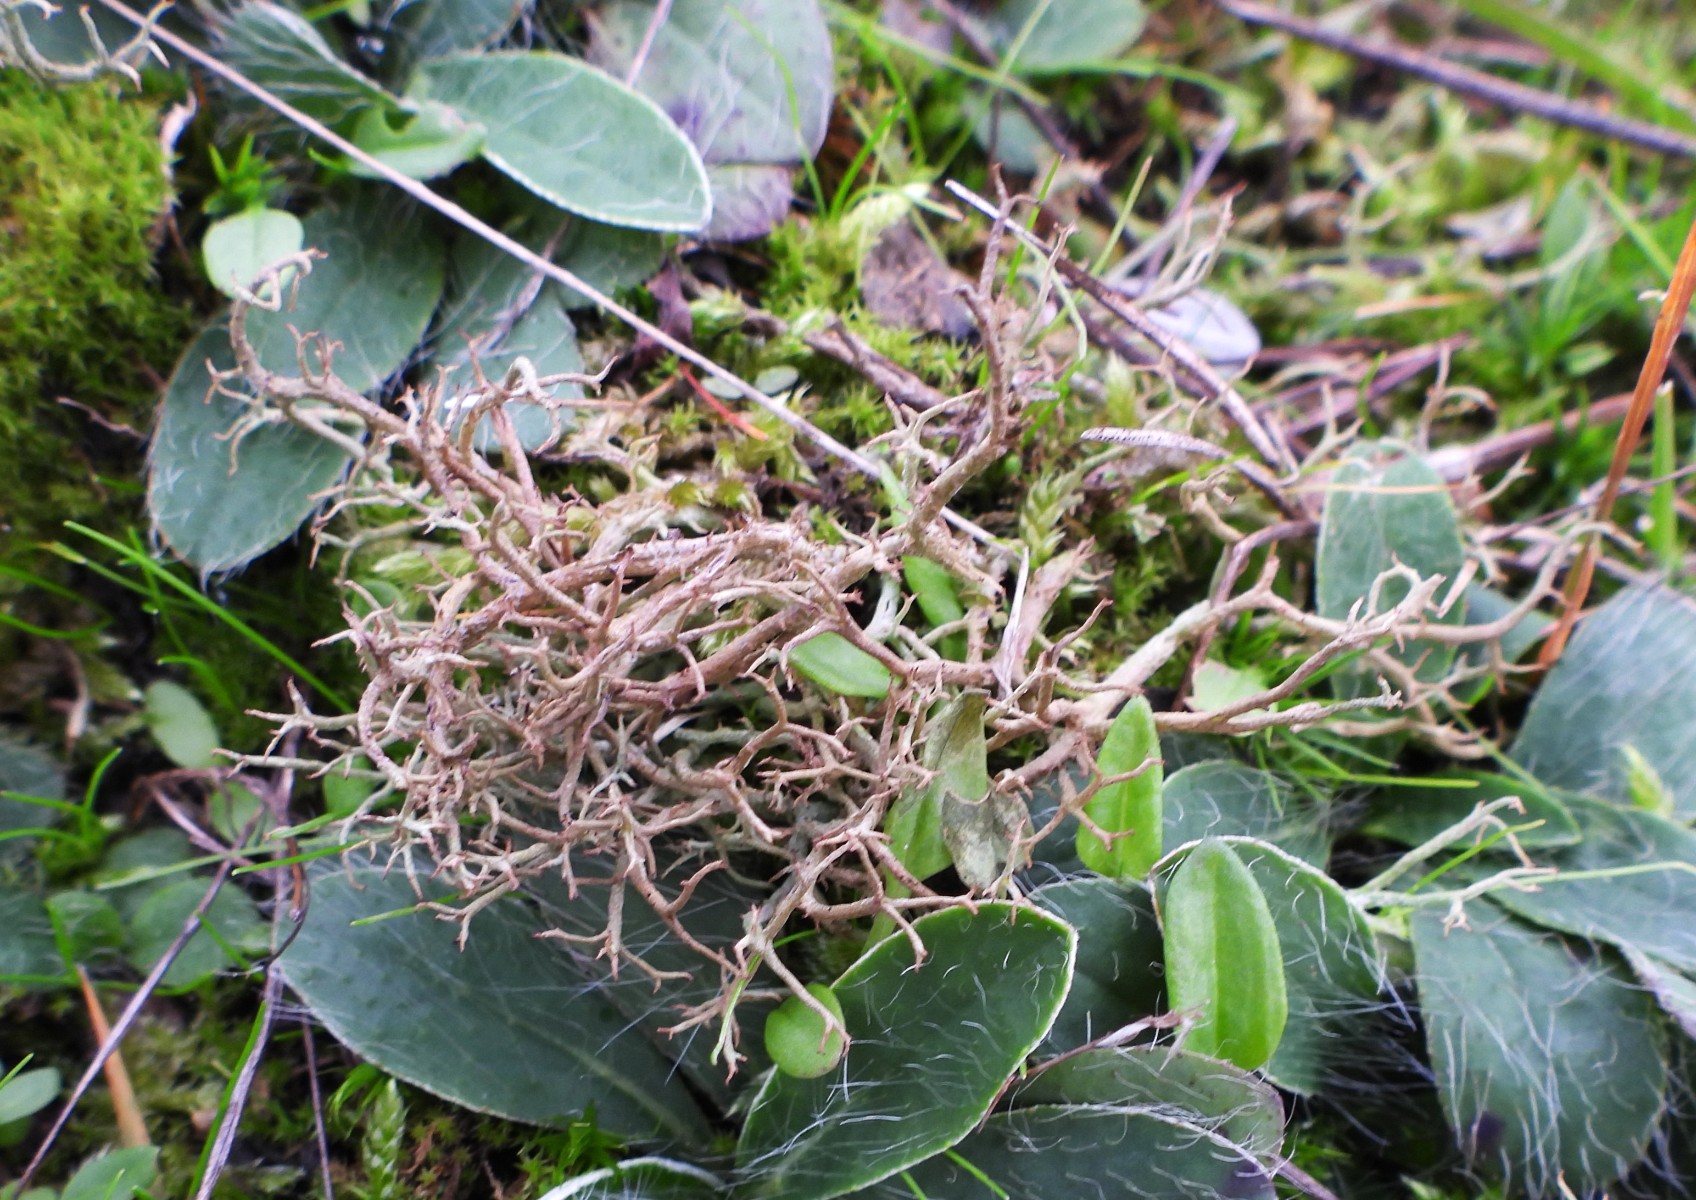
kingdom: Fungi
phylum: Ascomycota
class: Lecanoromycetes
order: Lecanorales
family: Cladoniaceae
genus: Cladonia
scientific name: Cladonia furcata
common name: kløftet bægerlav
